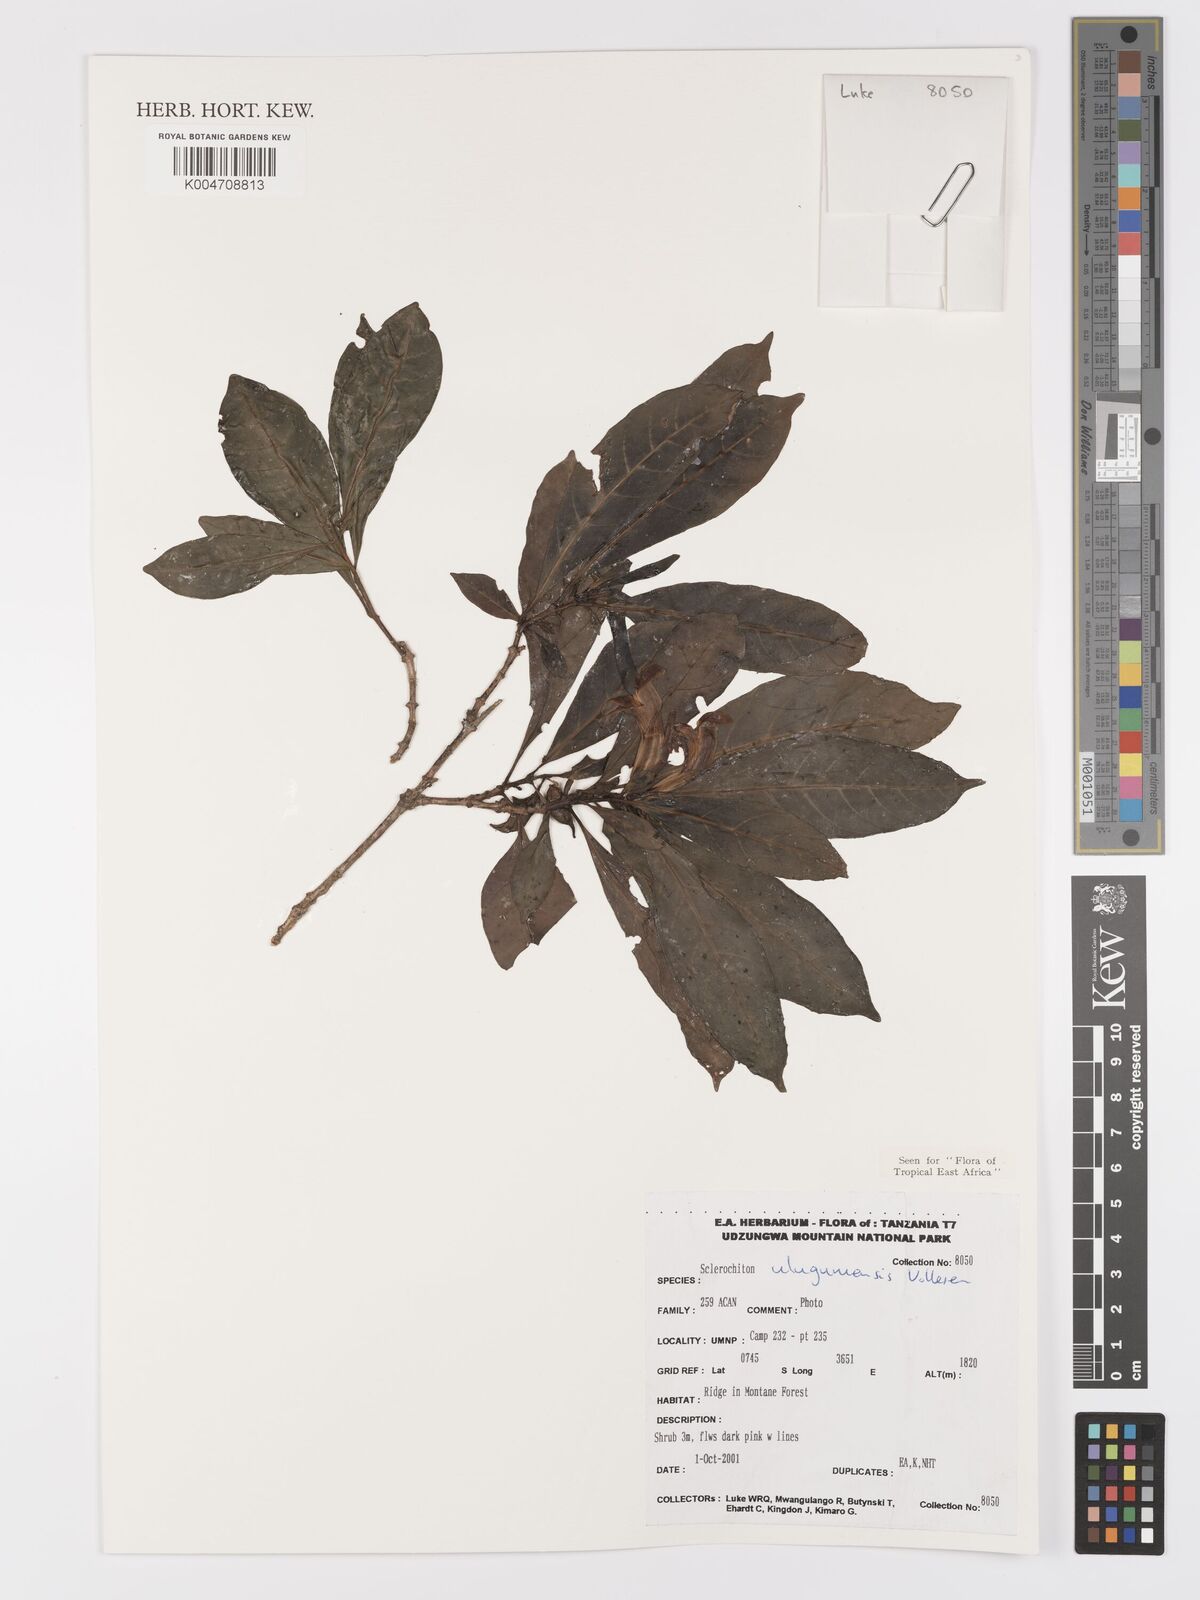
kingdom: Plantae
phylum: Tracheophyta
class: Magnoliopsida
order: Lamiales
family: Acanthaceae
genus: Sclerochiton
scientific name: Sclerochiton uluguruensis
